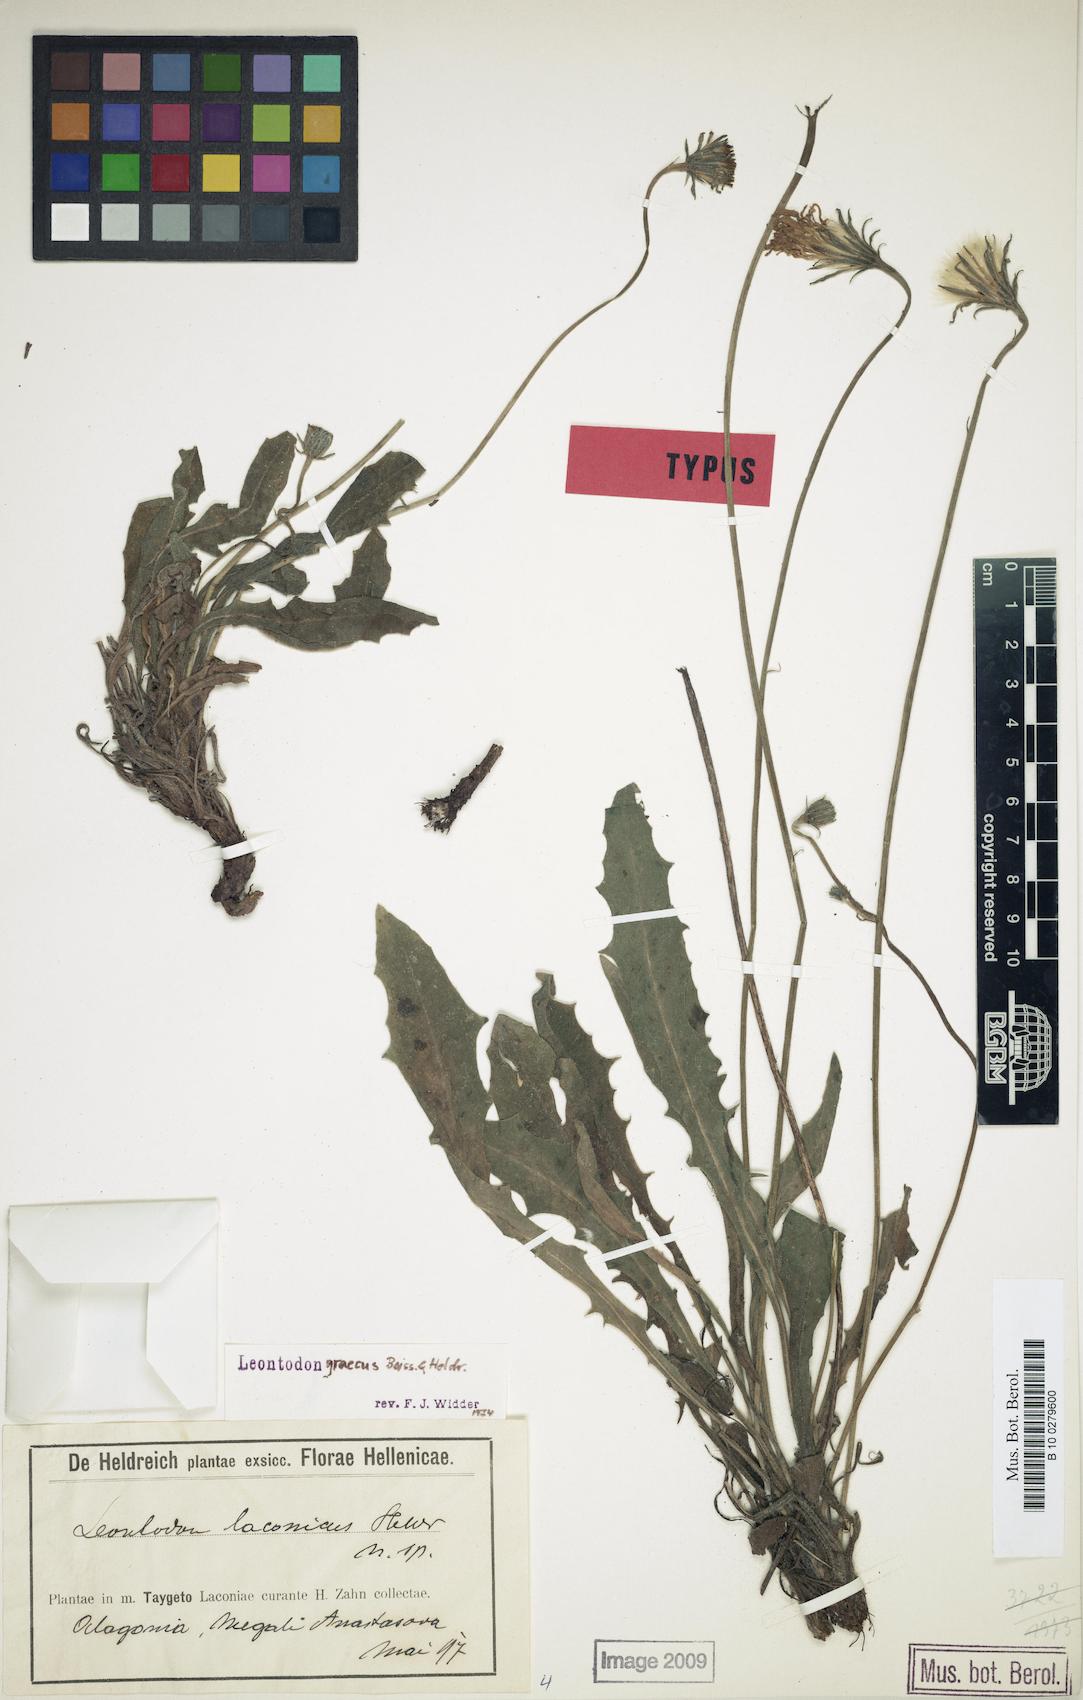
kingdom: Plantae
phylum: Tracheophyta
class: Magnoliopsida
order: Asterales
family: Asteraceae
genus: Leontodon
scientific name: Leontodon graecus
